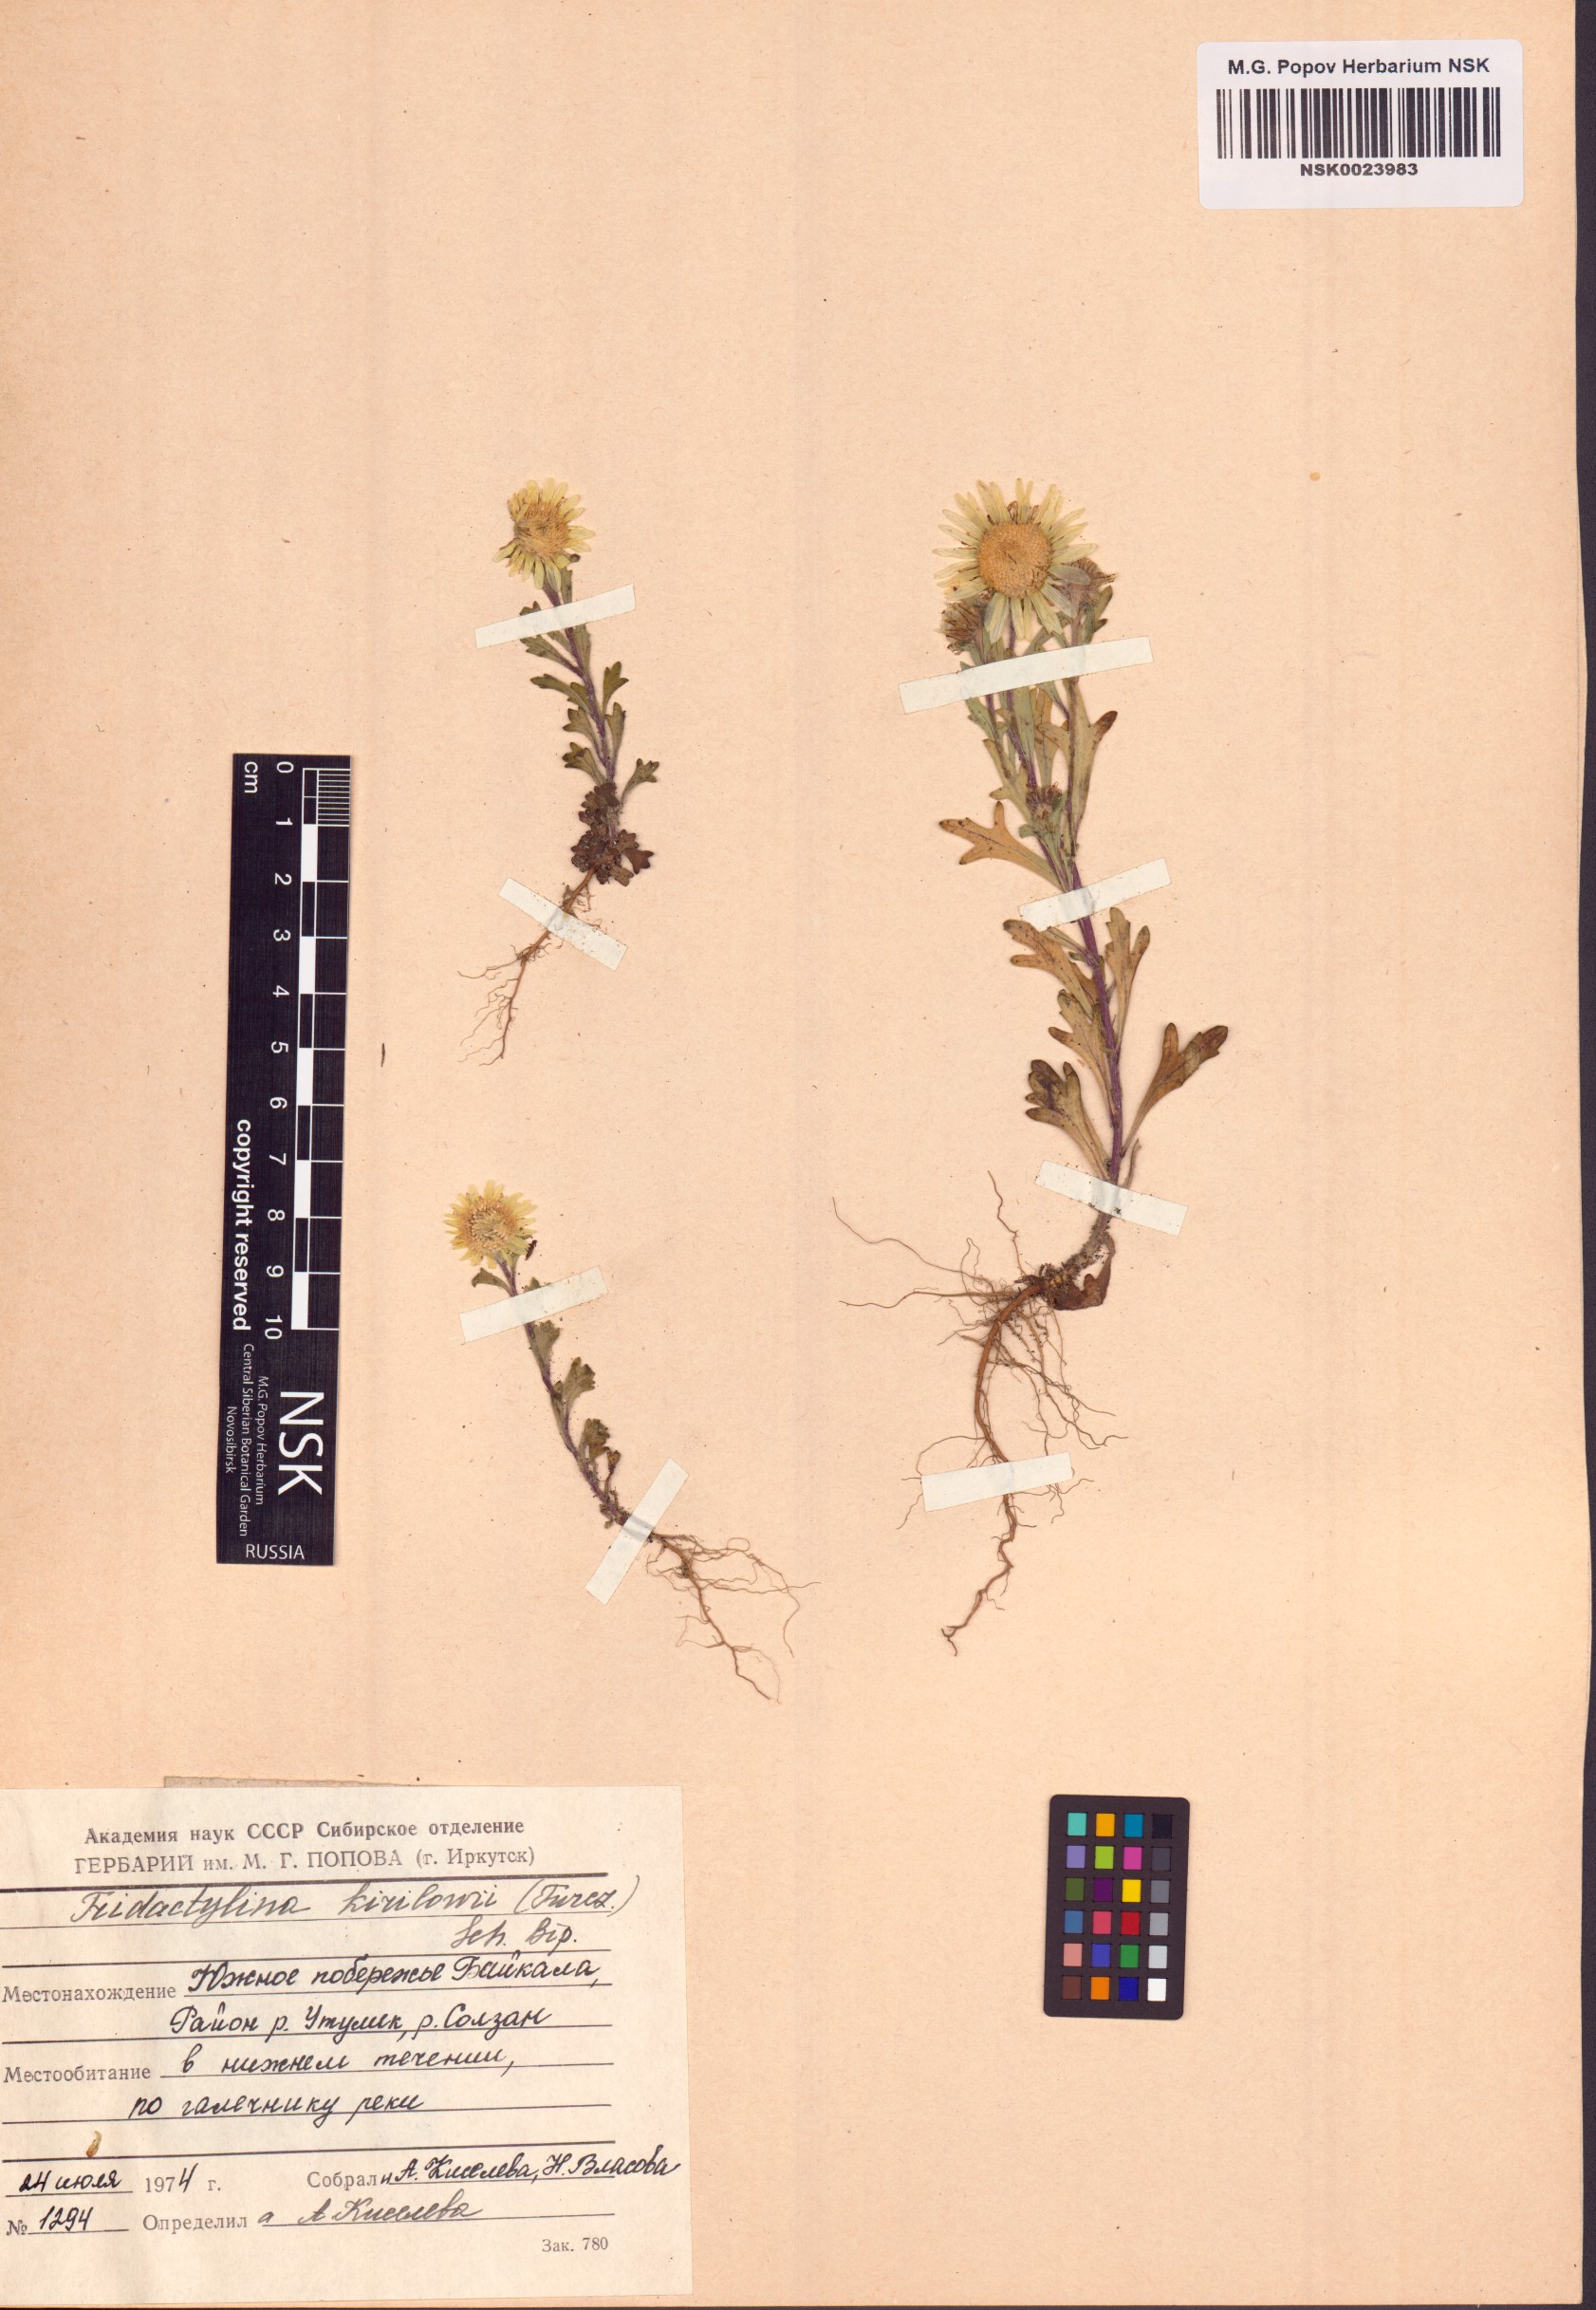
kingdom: Plantae
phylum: Tracheophyta
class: Magnoliopsida
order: Asterales
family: Asteraceae
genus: Tridactylina
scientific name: Tridactylina kirilowii
